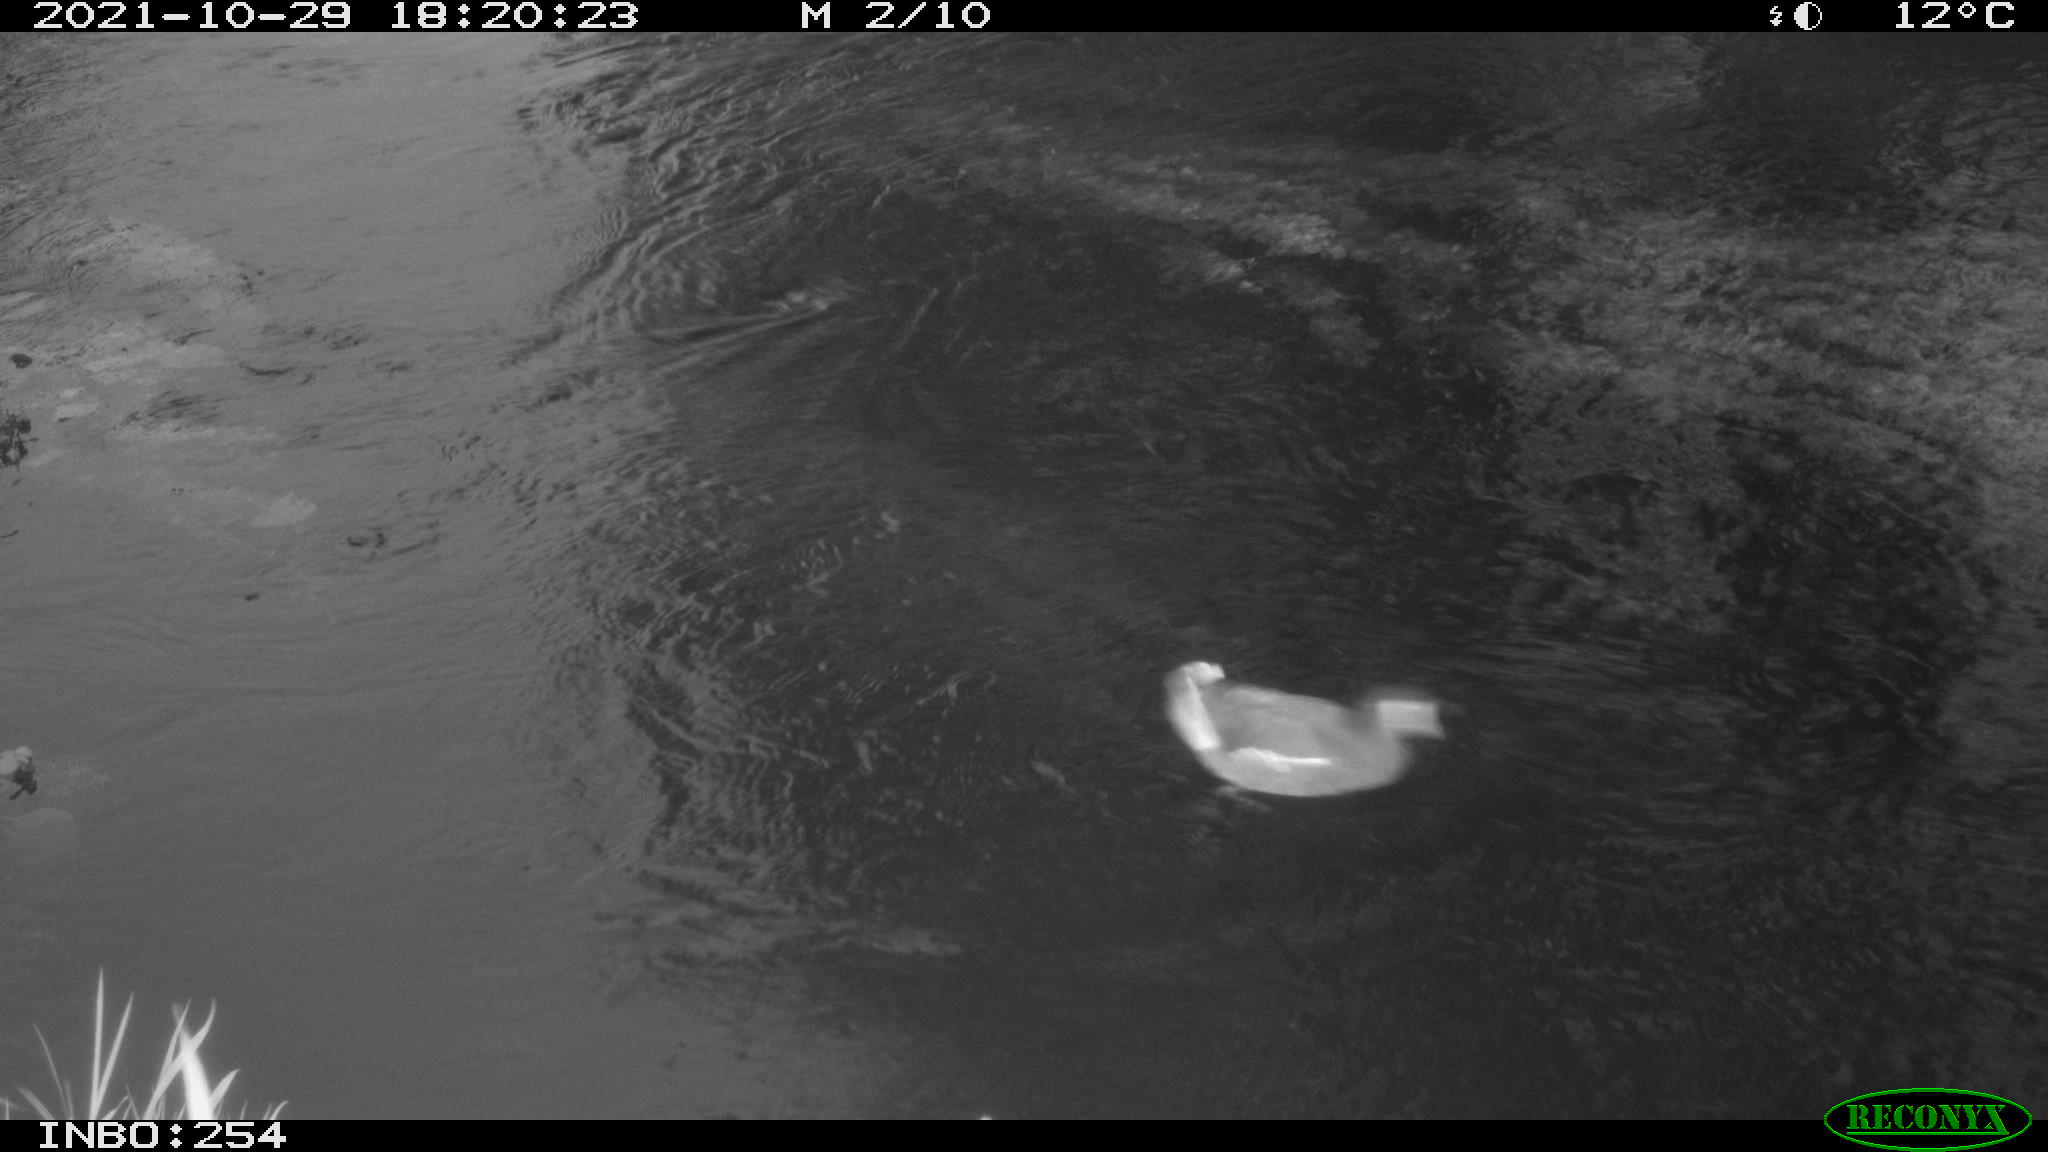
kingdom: Animalia
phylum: Chordata
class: Aves
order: Gruiformes
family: Rallidae
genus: Gallinula
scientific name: Gallinula chloropus
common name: Common moorhen
